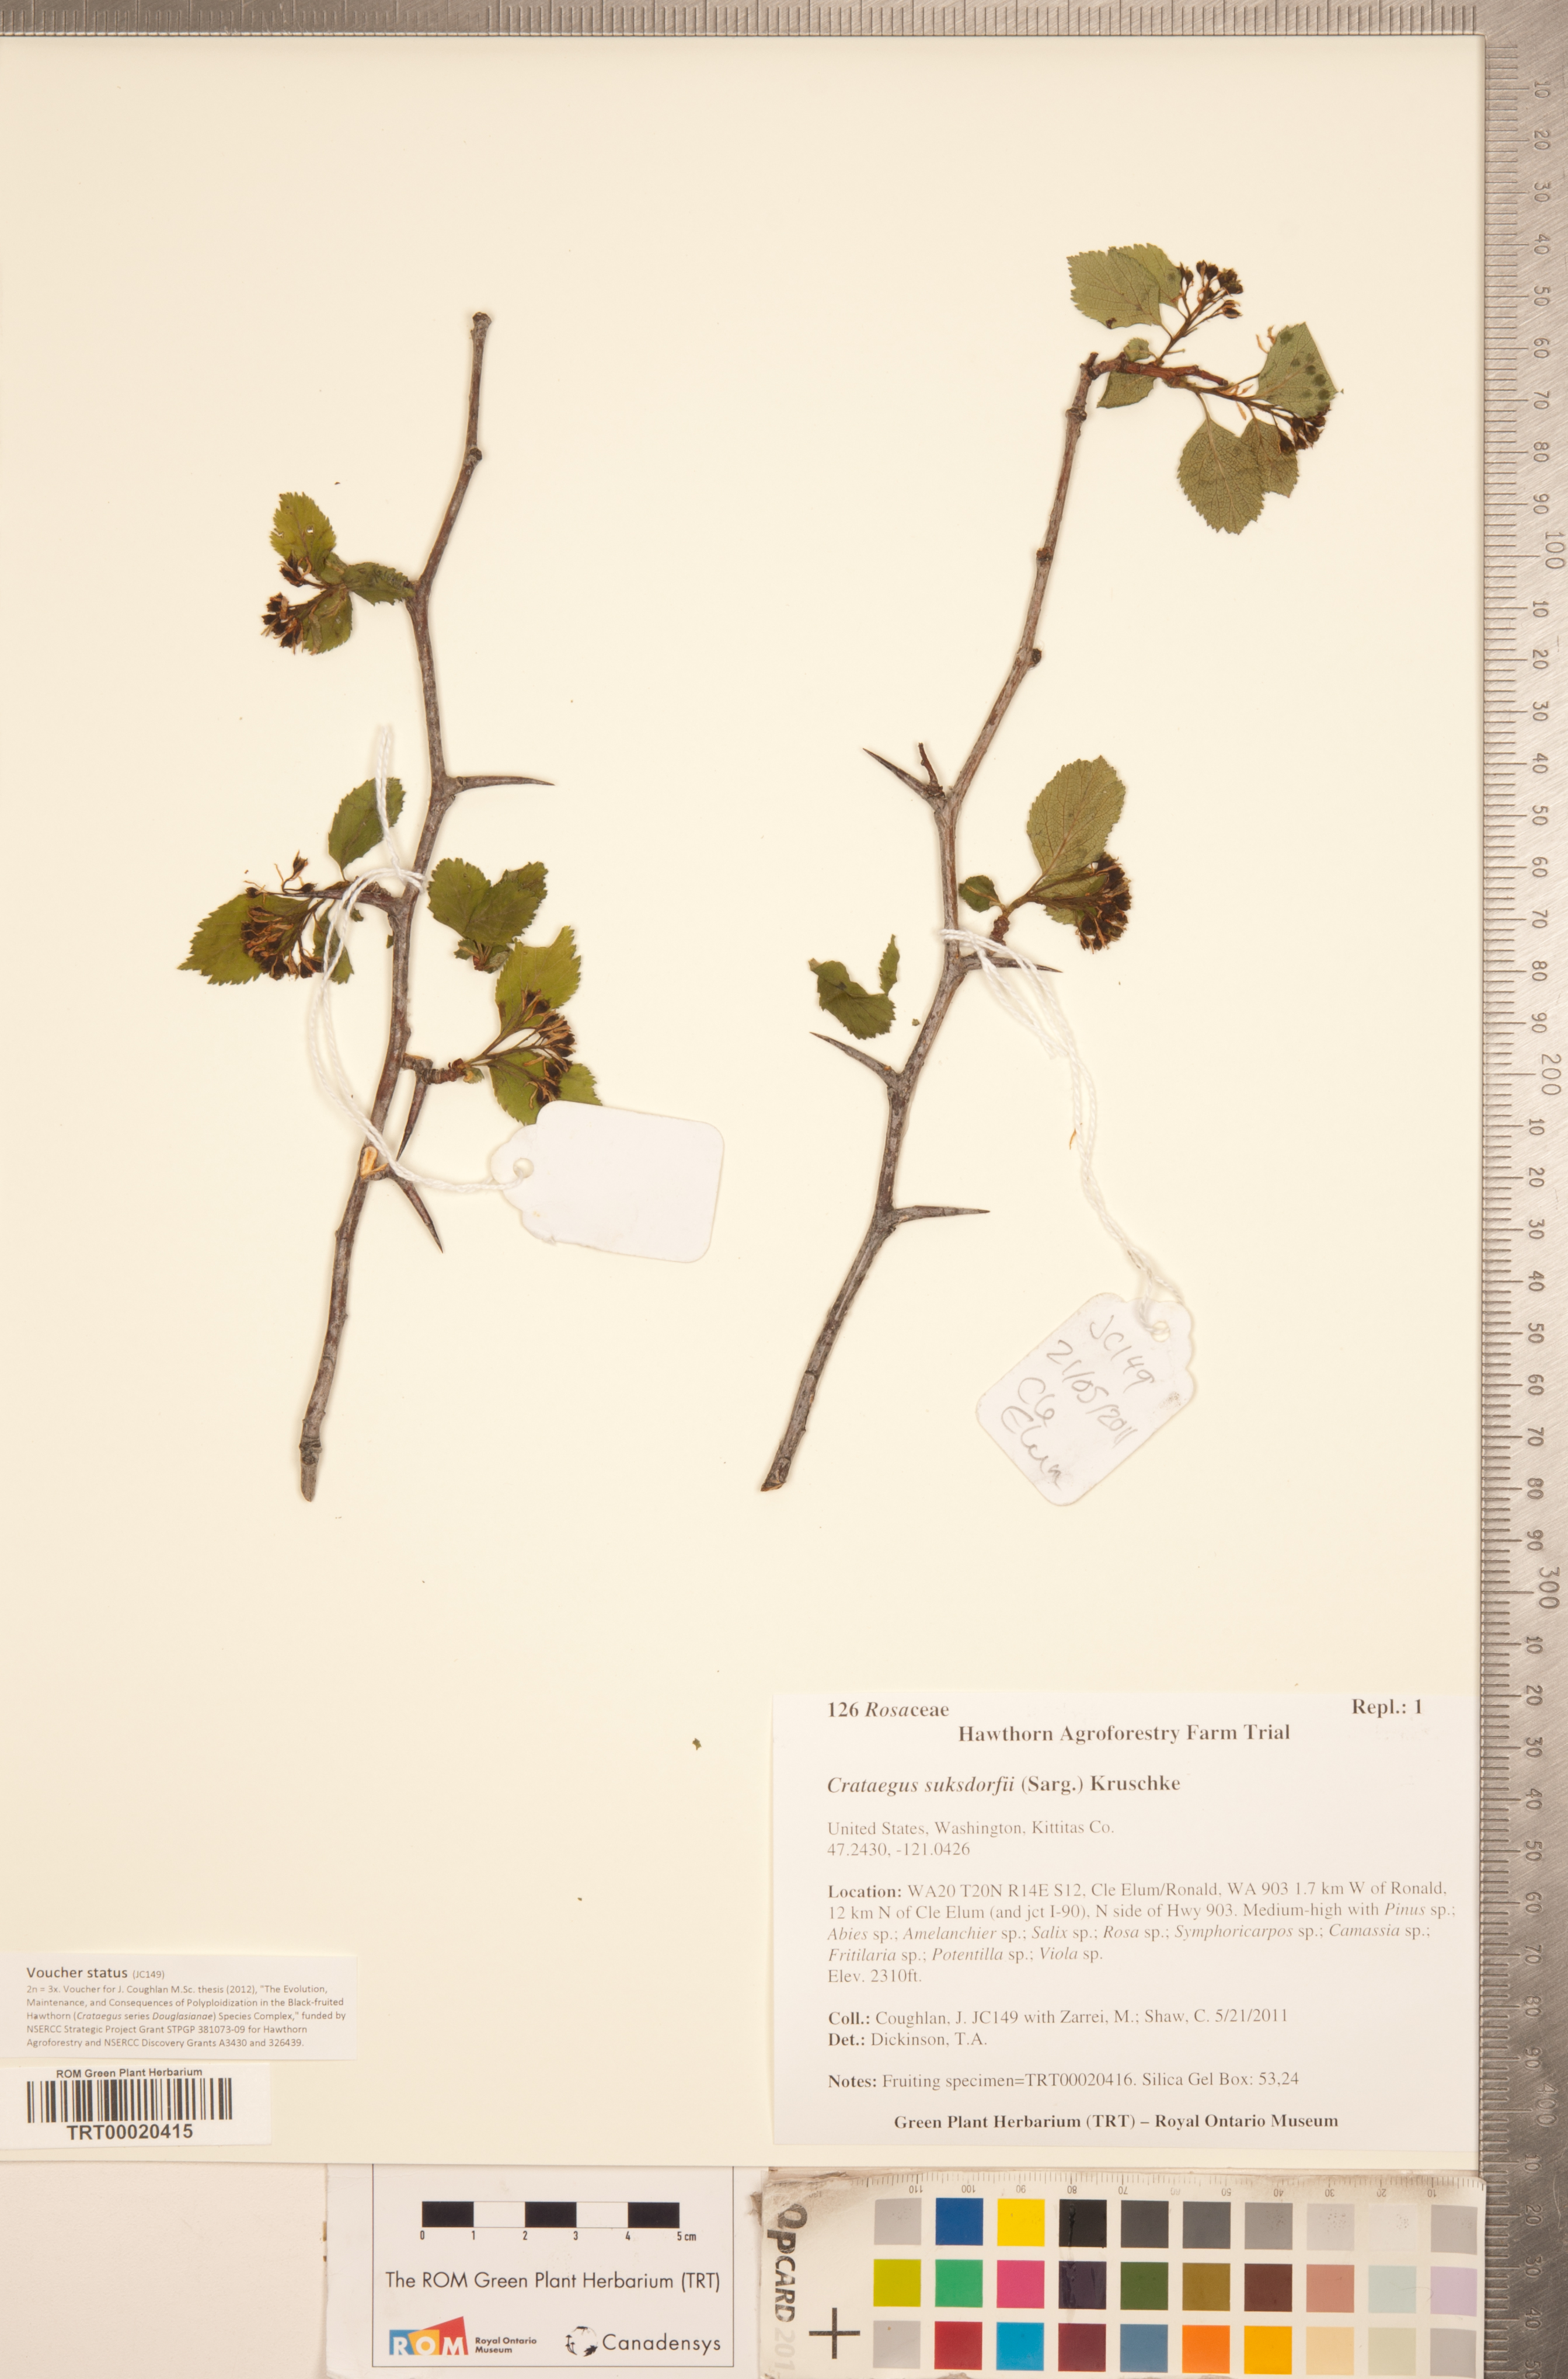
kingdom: Plantae
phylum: Tracheophyta
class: Magnoliopsida
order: Rosales
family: Rosaceae
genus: Crataegus
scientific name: Crataegus gaylussacia
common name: Huckleberry hawthorn
